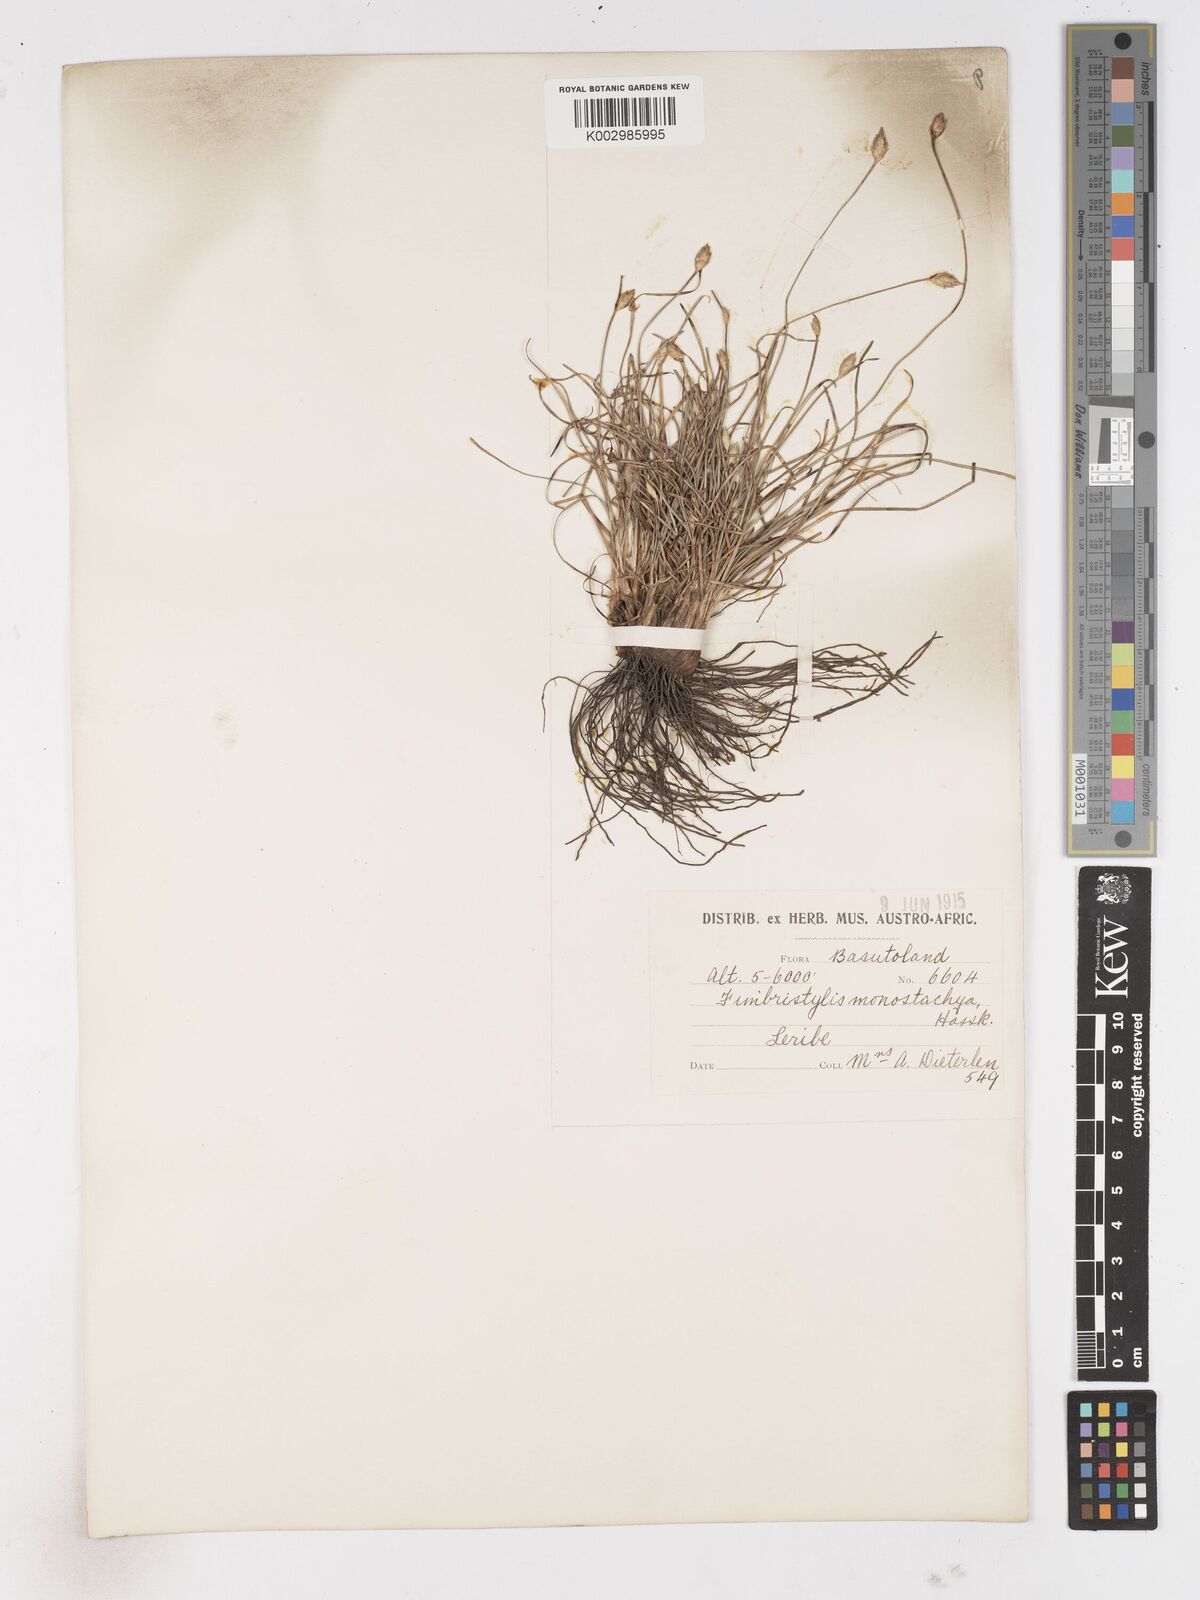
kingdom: Plantae
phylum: Tracheophyta
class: Liliopsida
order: Poales
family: Cyperaceae
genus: Abildgaardia
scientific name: Abildgaardia ovata
